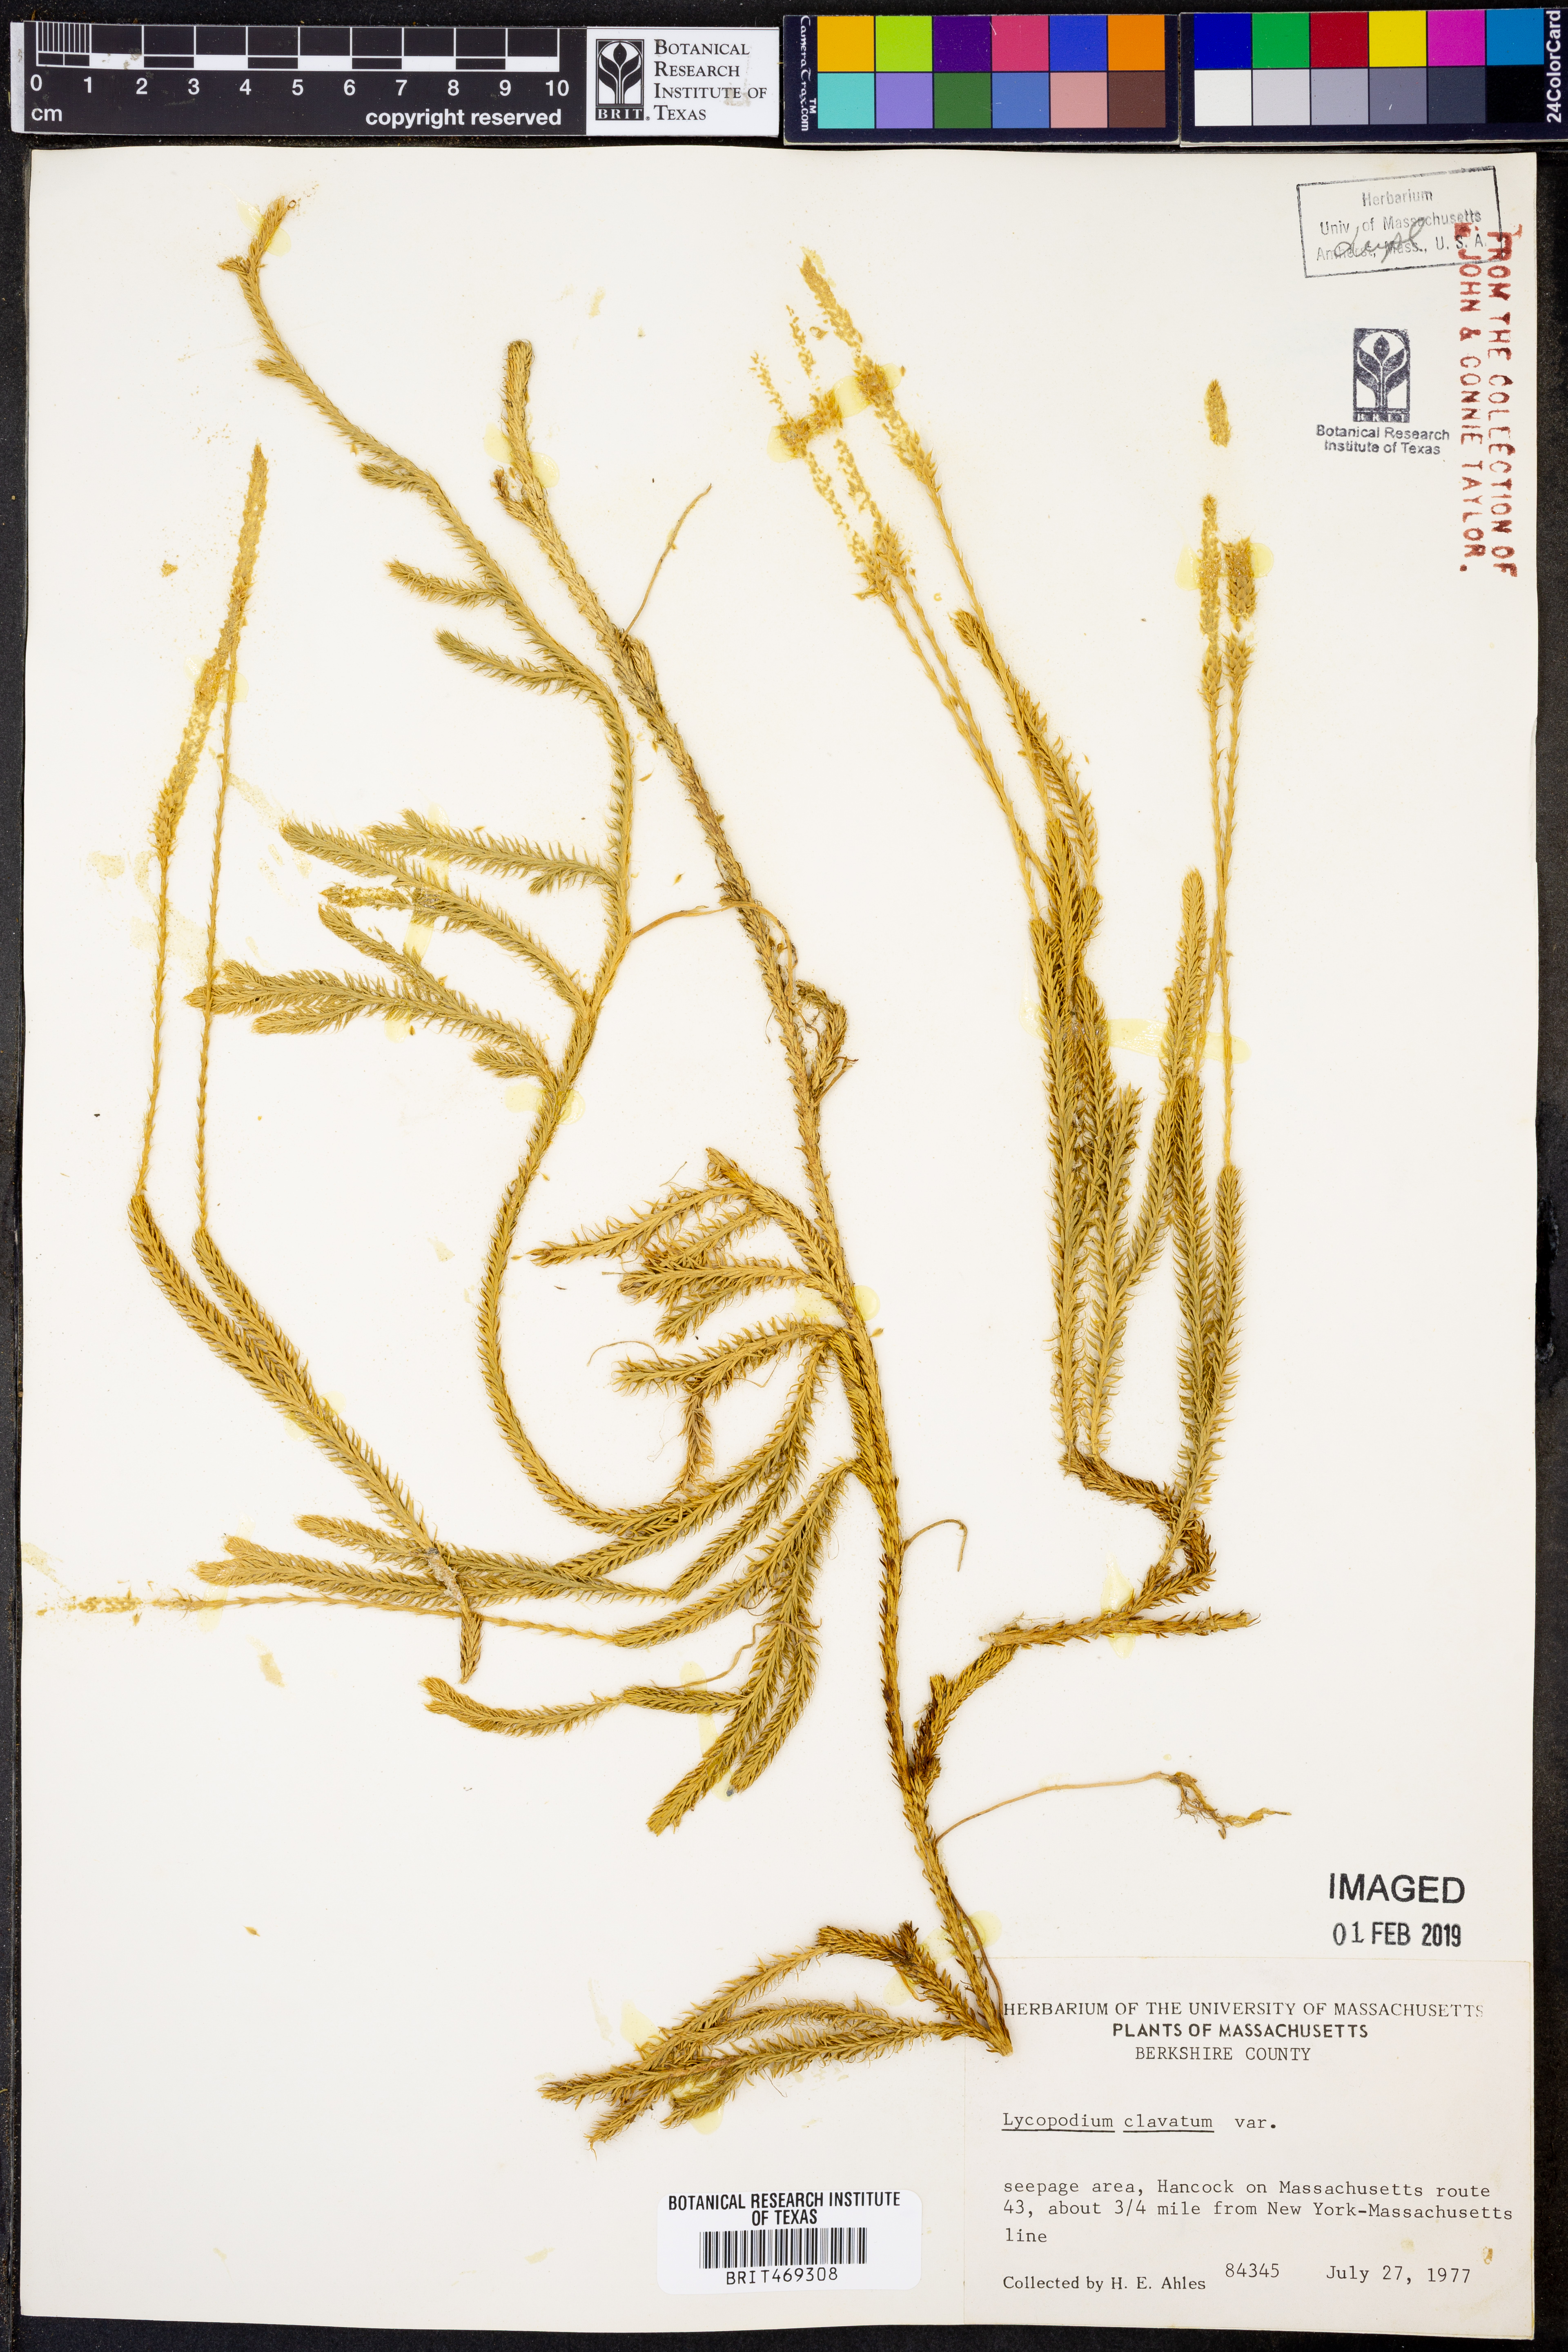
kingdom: Plantae
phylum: Tracheophyta
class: Lycopodiopsida
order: Lycopodiales
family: Lycopodiaceae
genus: Lycopodium
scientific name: Lycopodium clavatum
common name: Stag's-horn clubmoss
